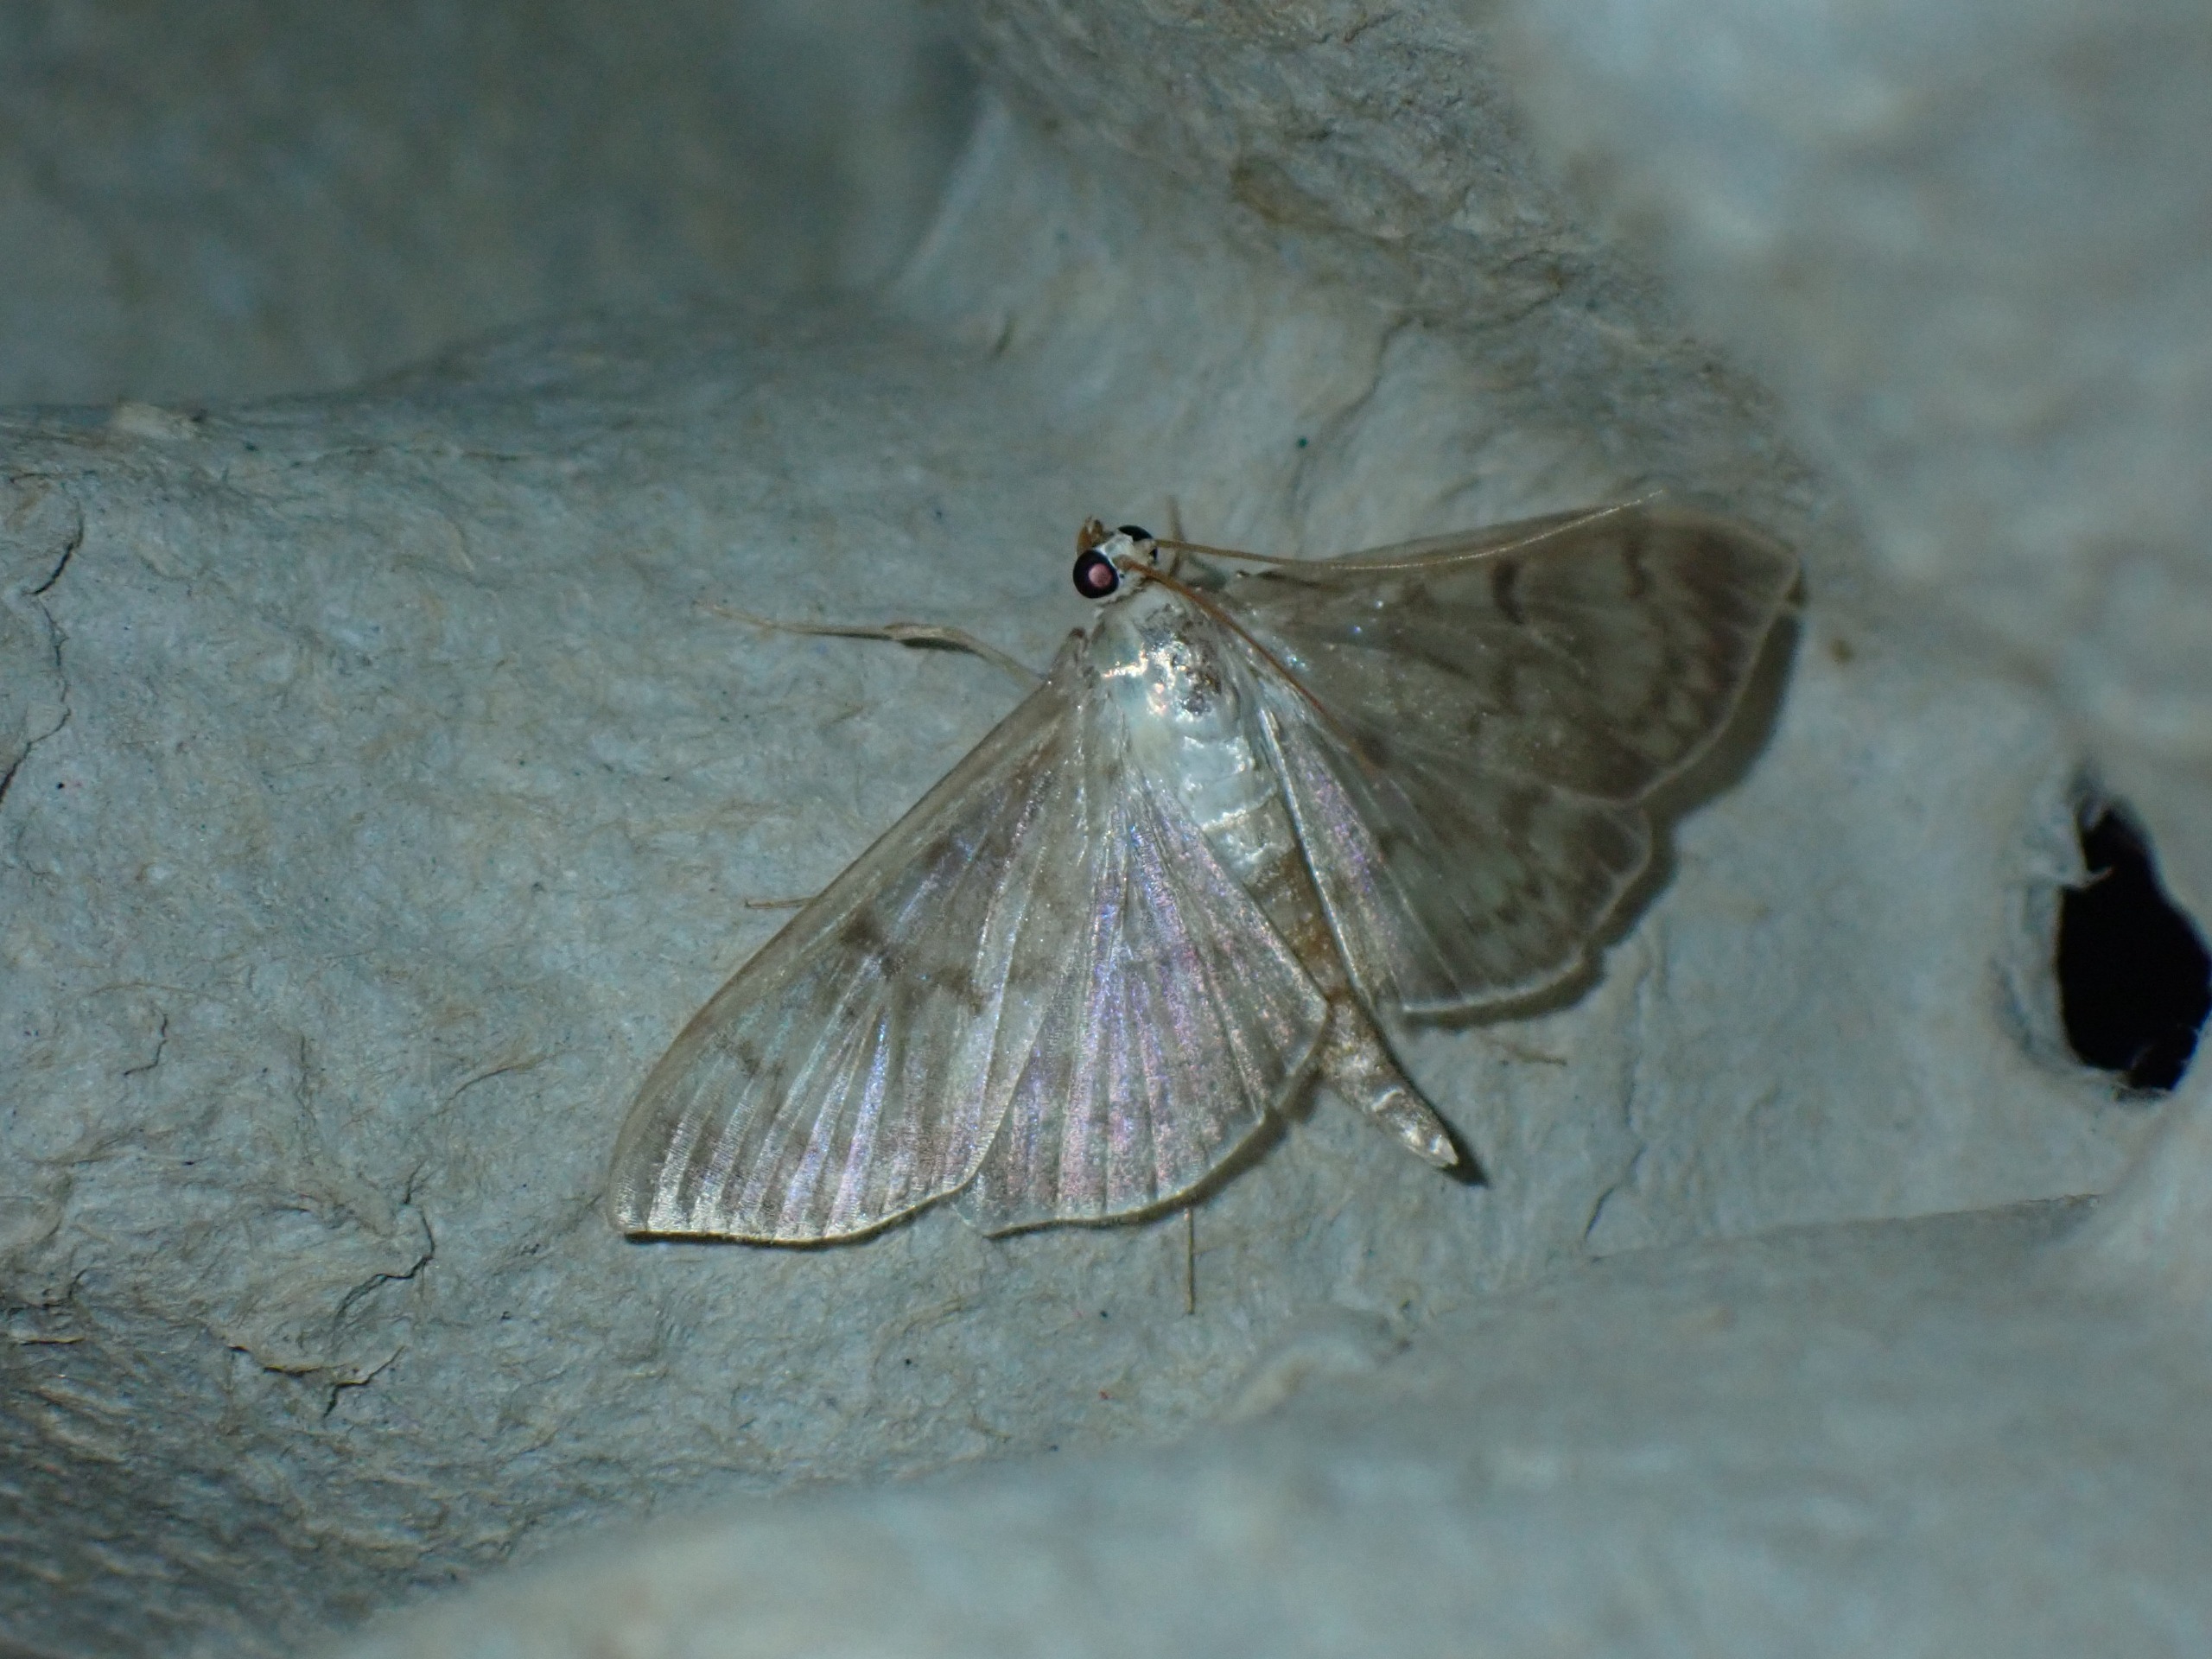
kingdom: Animalia
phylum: Arthropoda
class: Insecta
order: Lepidoptera
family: Crambidae
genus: Patania
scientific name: Patania ruralis
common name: Perlemorshalvmøl
